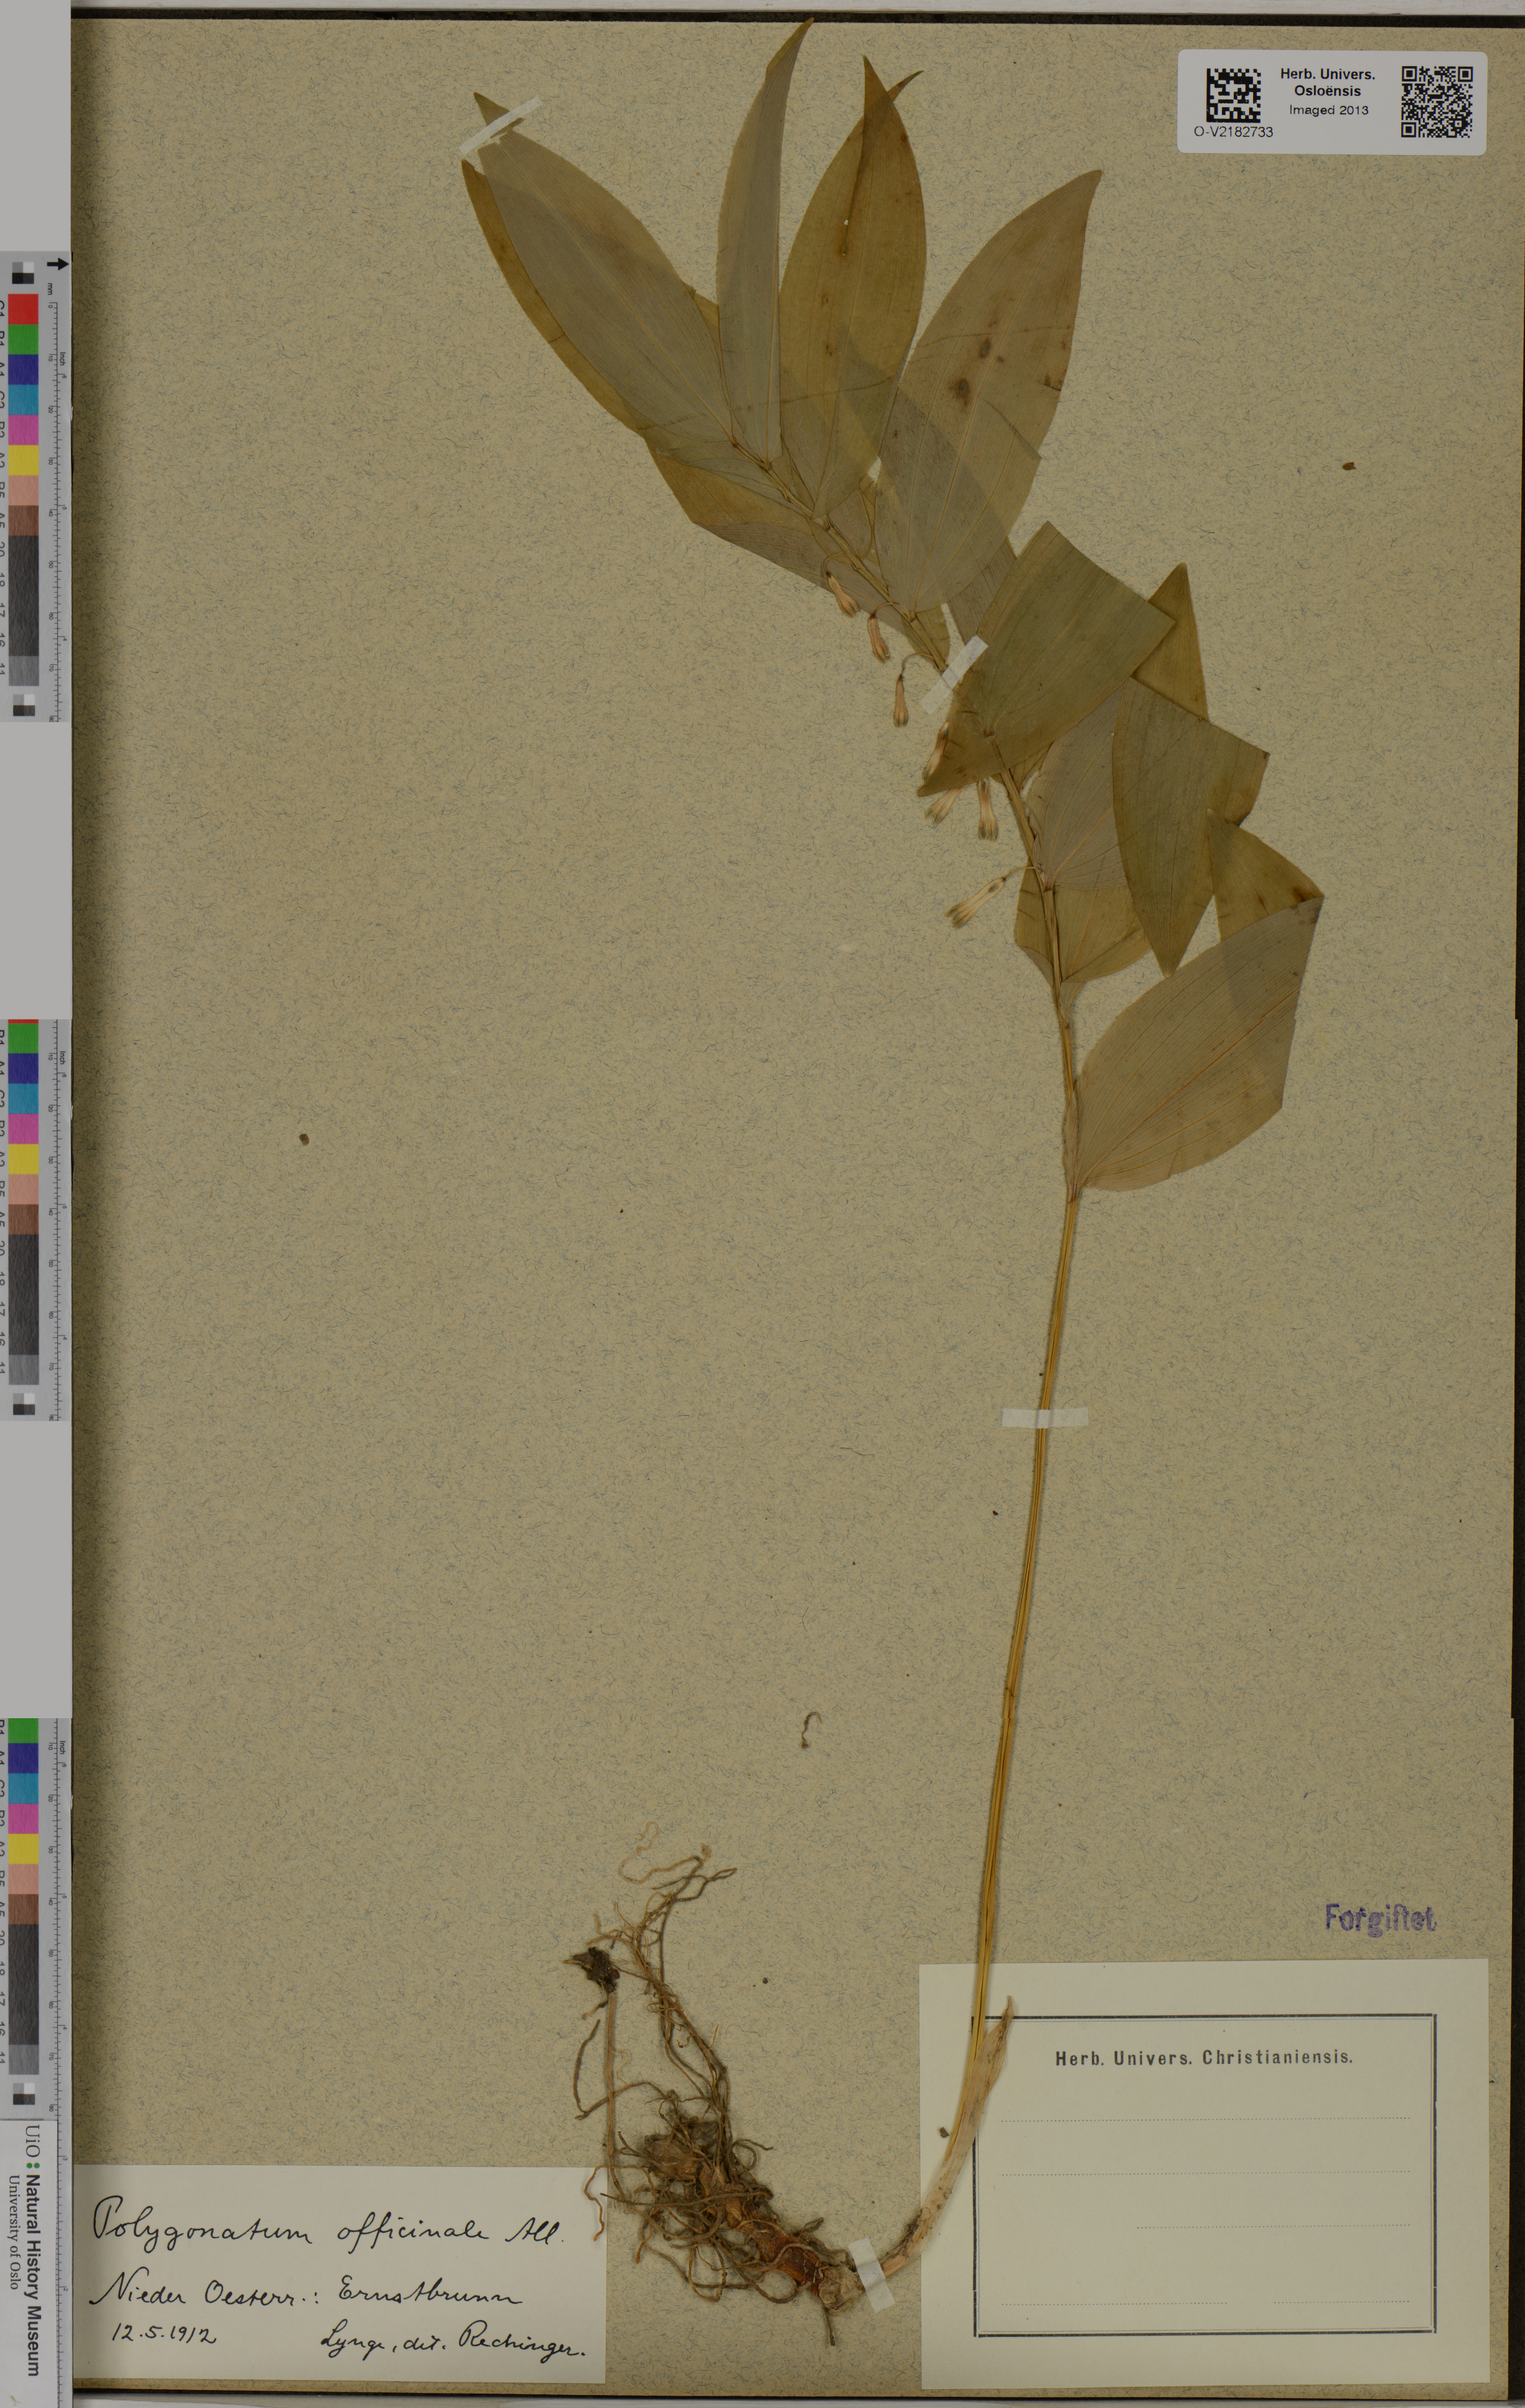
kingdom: Plantae
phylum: Tracheophyta
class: Liliopsida
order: Asparagales
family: Asparagaceae
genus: Polygonatum
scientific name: Polygonatum odoratum
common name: Angular solomon's-seal
